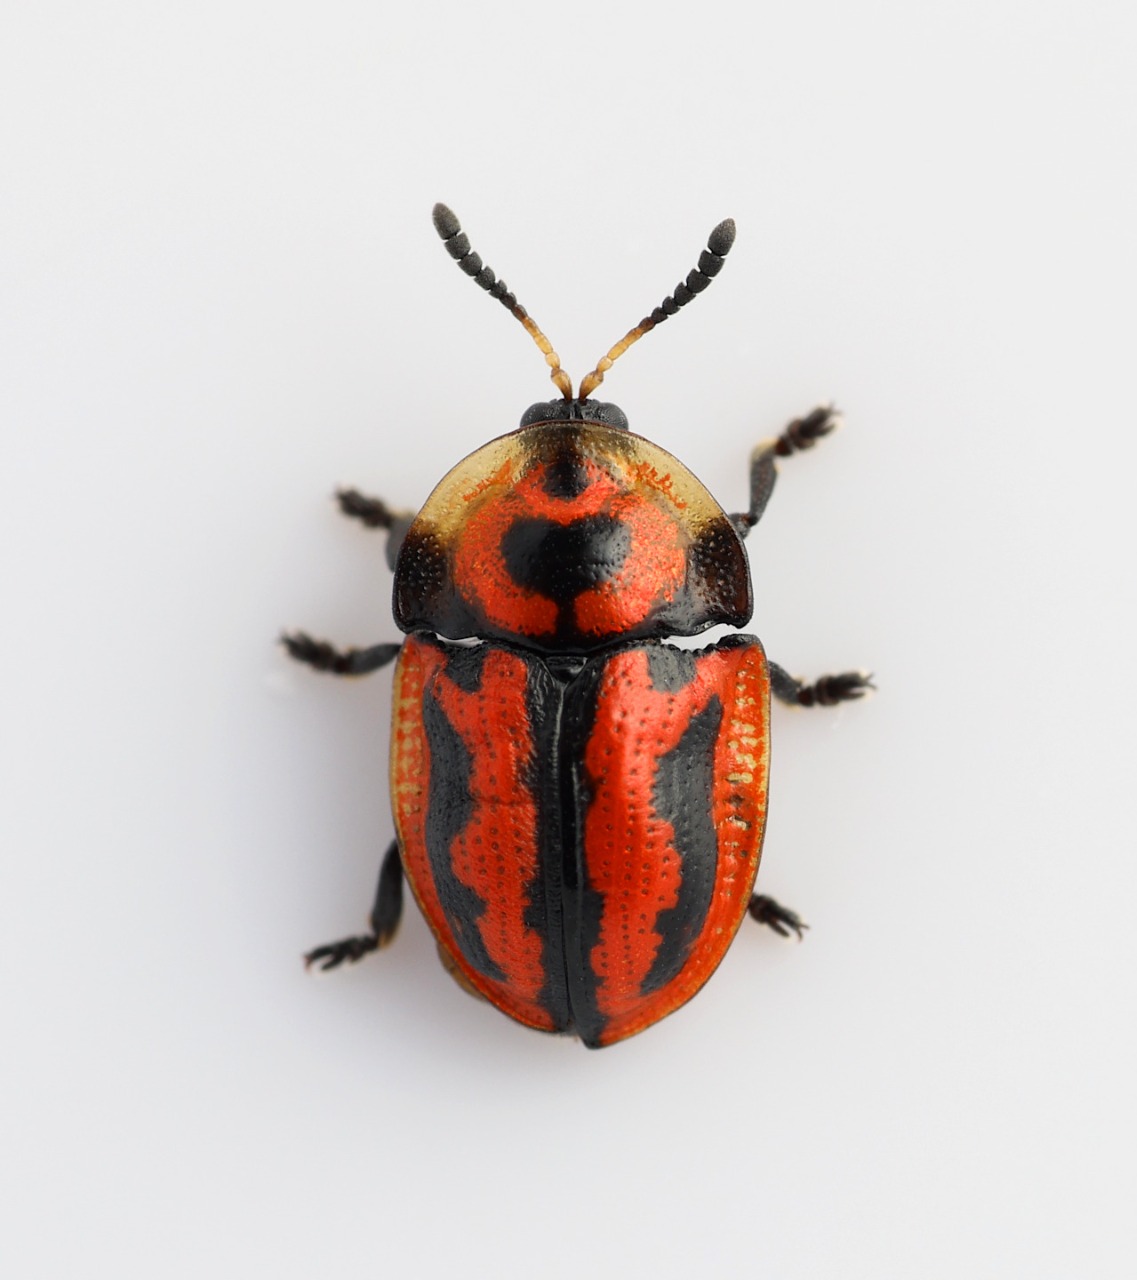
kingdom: Animalia
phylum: Arthropoda
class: Insecta
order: Coleoptera
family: Chrysomelidae
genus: Pilemostoma
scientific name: Pilemostoma fastuosa
